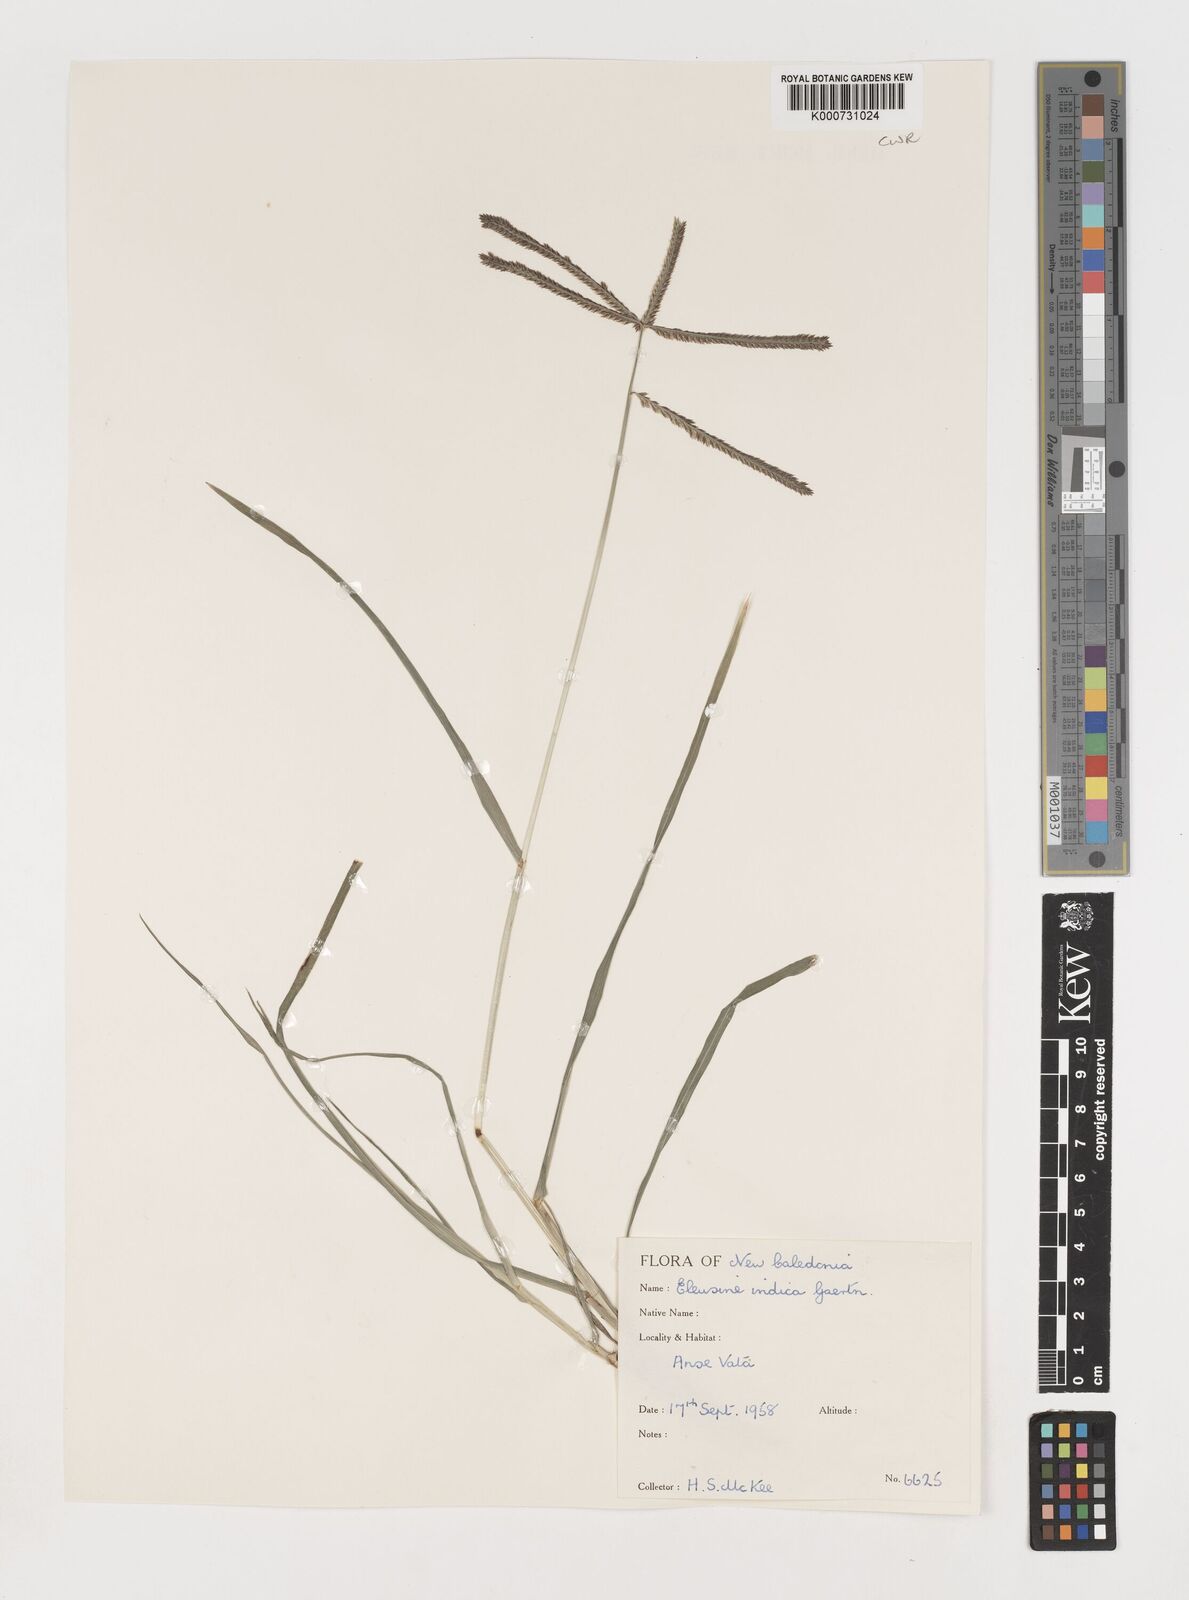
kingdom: Plantae
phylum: Tracheophyta
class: Liliopsida
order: Poales
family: Poaceae
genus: Eleusine
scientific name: Eleusine indica
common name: Yard-grass
